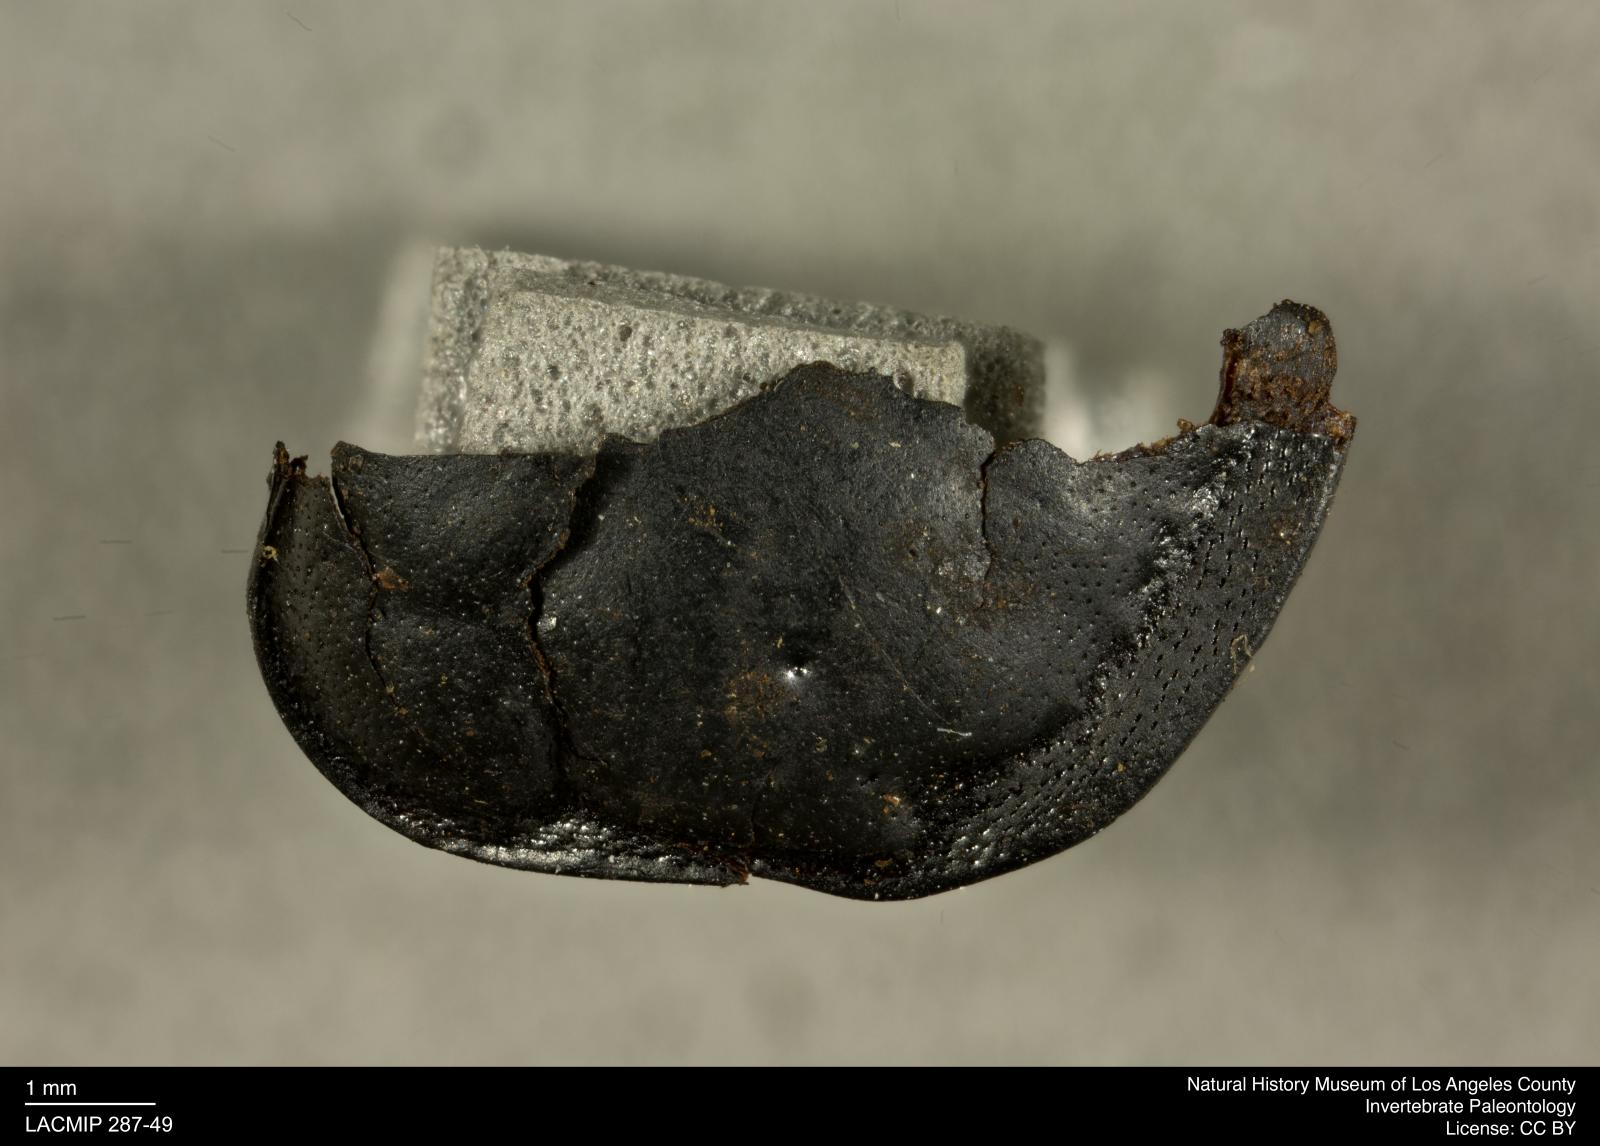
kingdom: Animalia
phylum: Arthropoda
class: Insecta
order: Coleoptera
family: Staphylinidae
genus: Nicrophorus
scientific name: Nicrophorus marginatus
